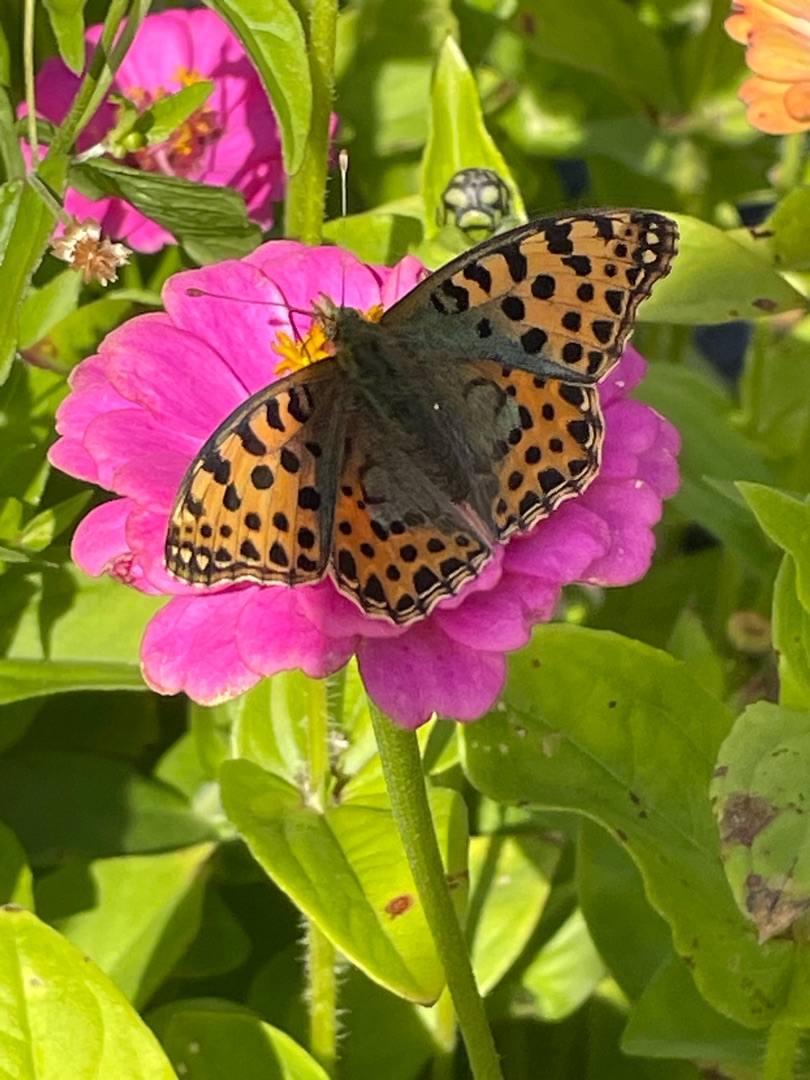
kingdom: Animalia
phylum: Arthropoda
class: Insecta
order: Lepidoptera
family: Nymphalidae
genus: Issoria
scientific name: Issoria lathonia
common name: Storplettet perlemorsommerfugl
